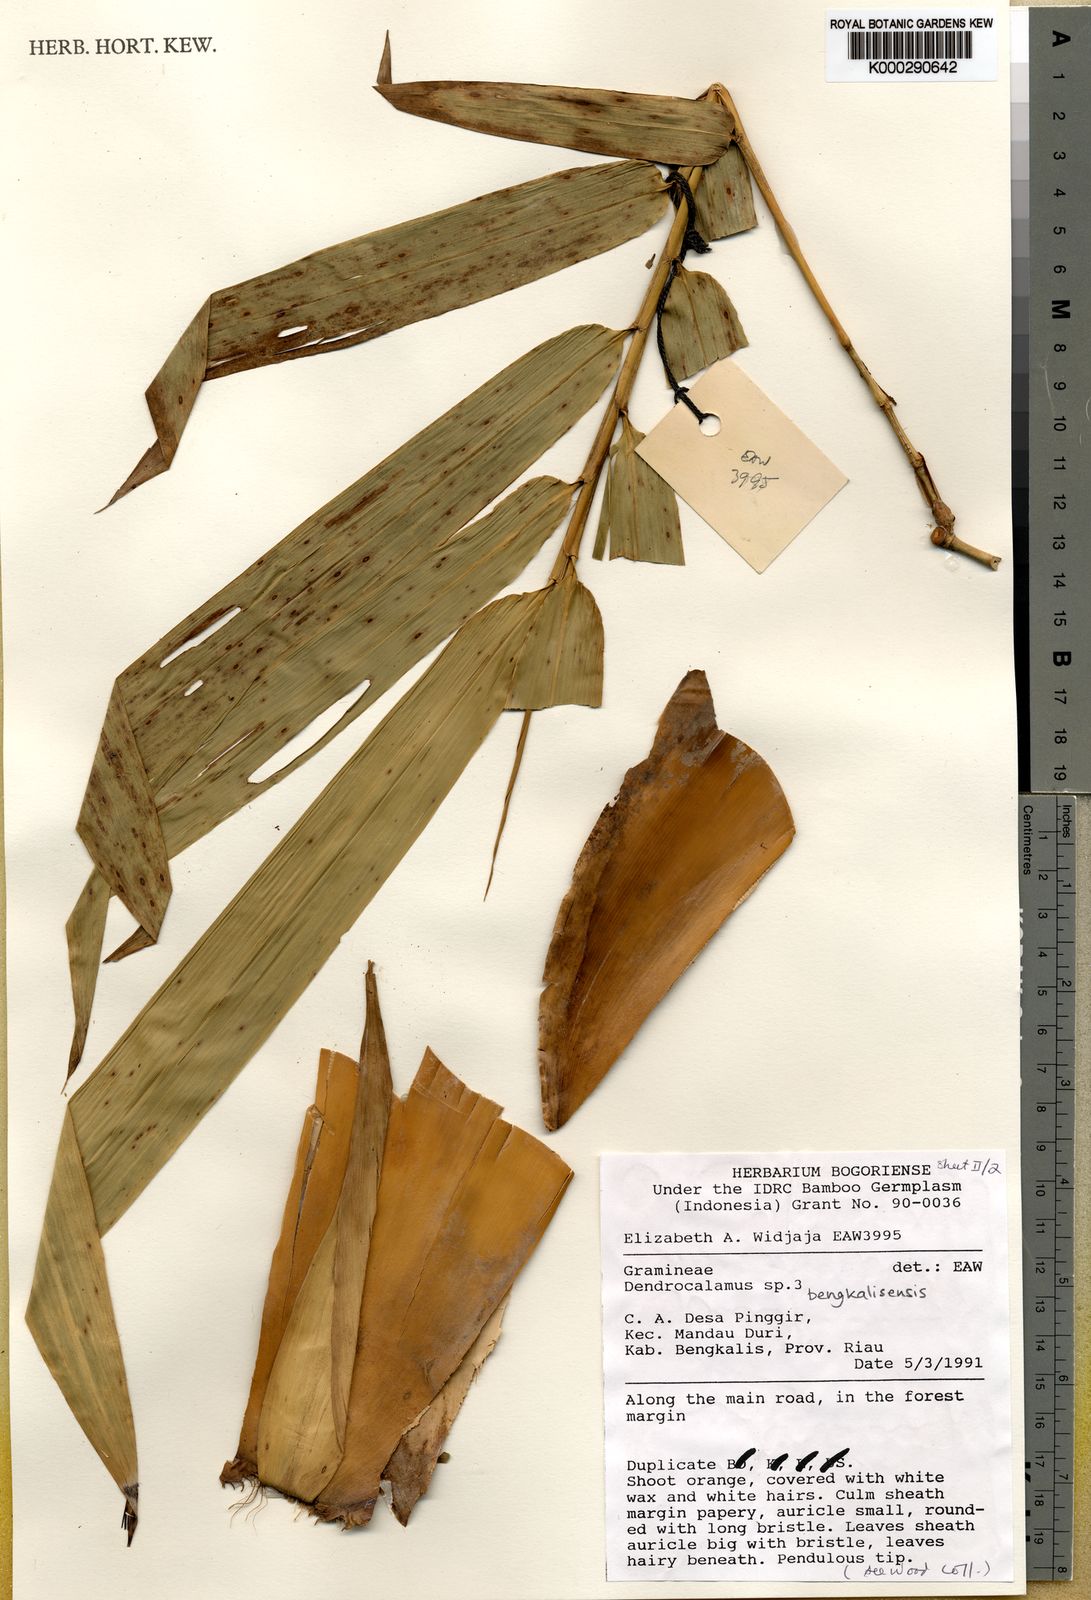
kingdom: Plantae
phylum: Tracheophyta
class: Liliopsida
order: Poales
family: Poaceae
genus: Dendrocalamus
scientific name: Dendrocalamus bengkalisensis
